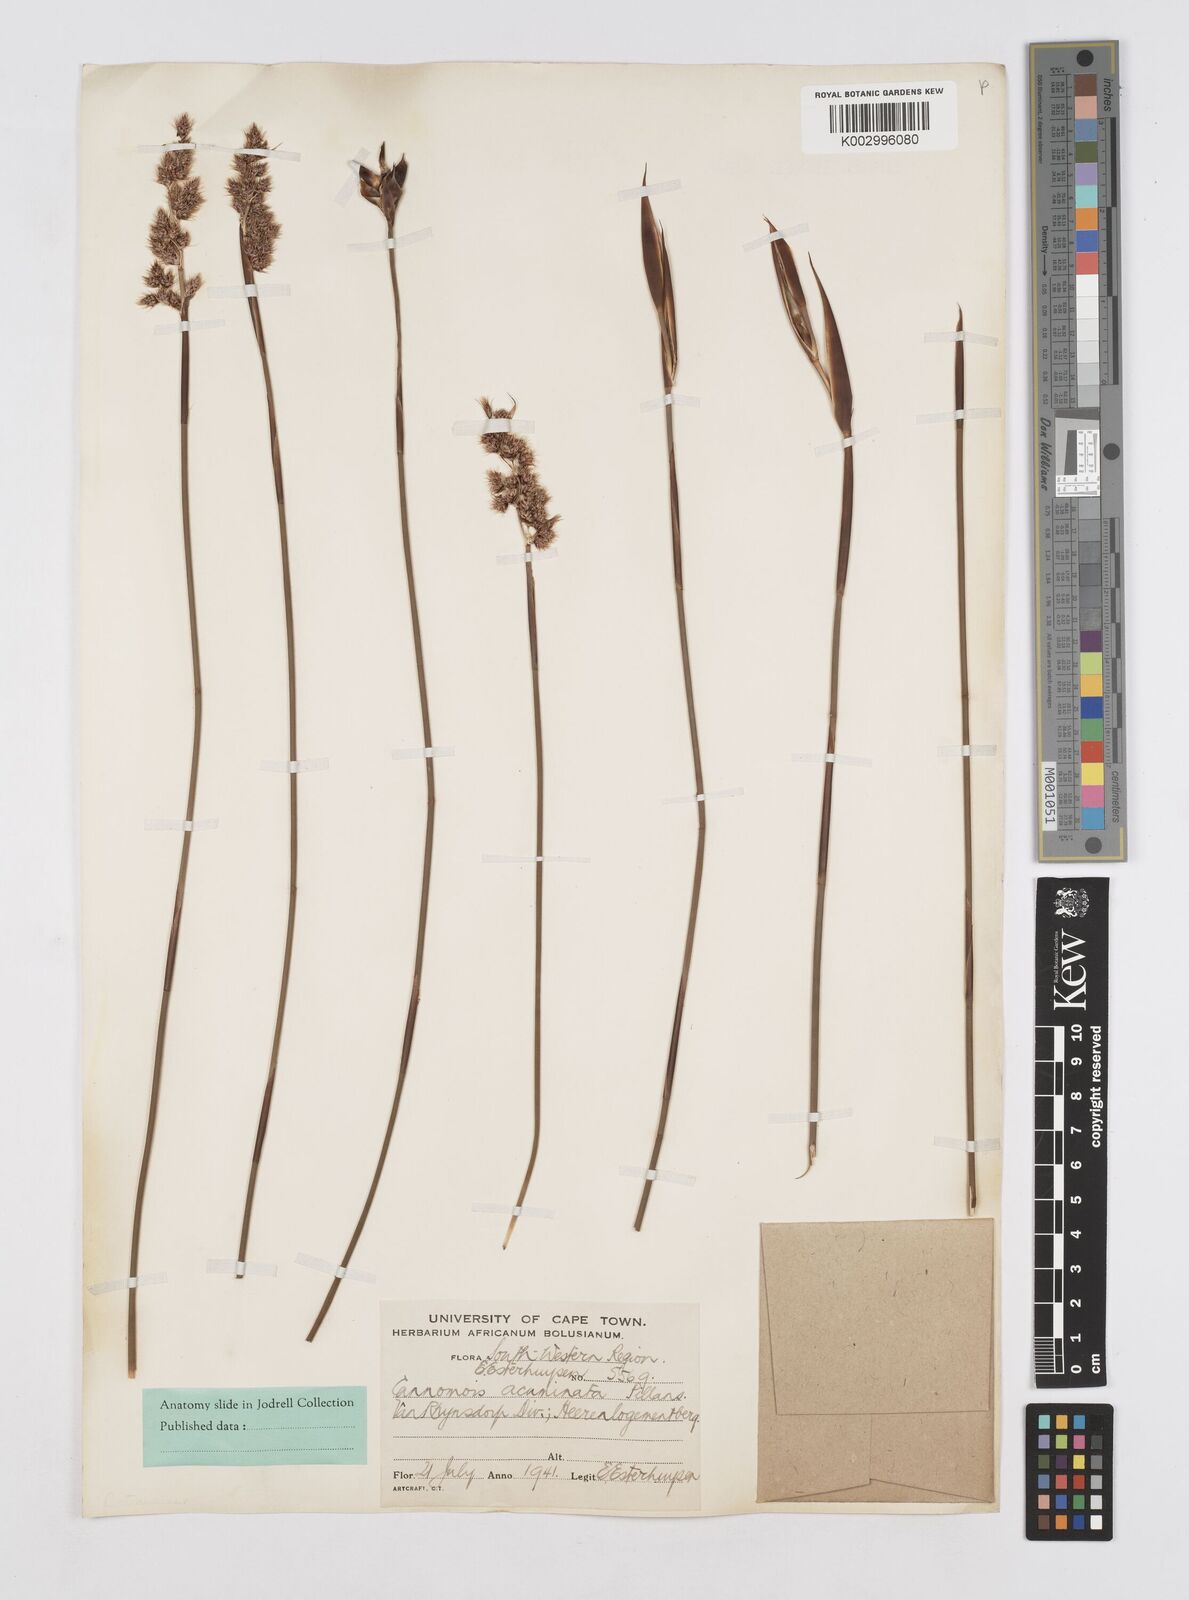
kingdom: Plantae
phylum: Tracheophyta
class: Liliopsida
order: Poales
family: Restionaceae
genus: Cannomois
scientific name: Cannomois parviflora
